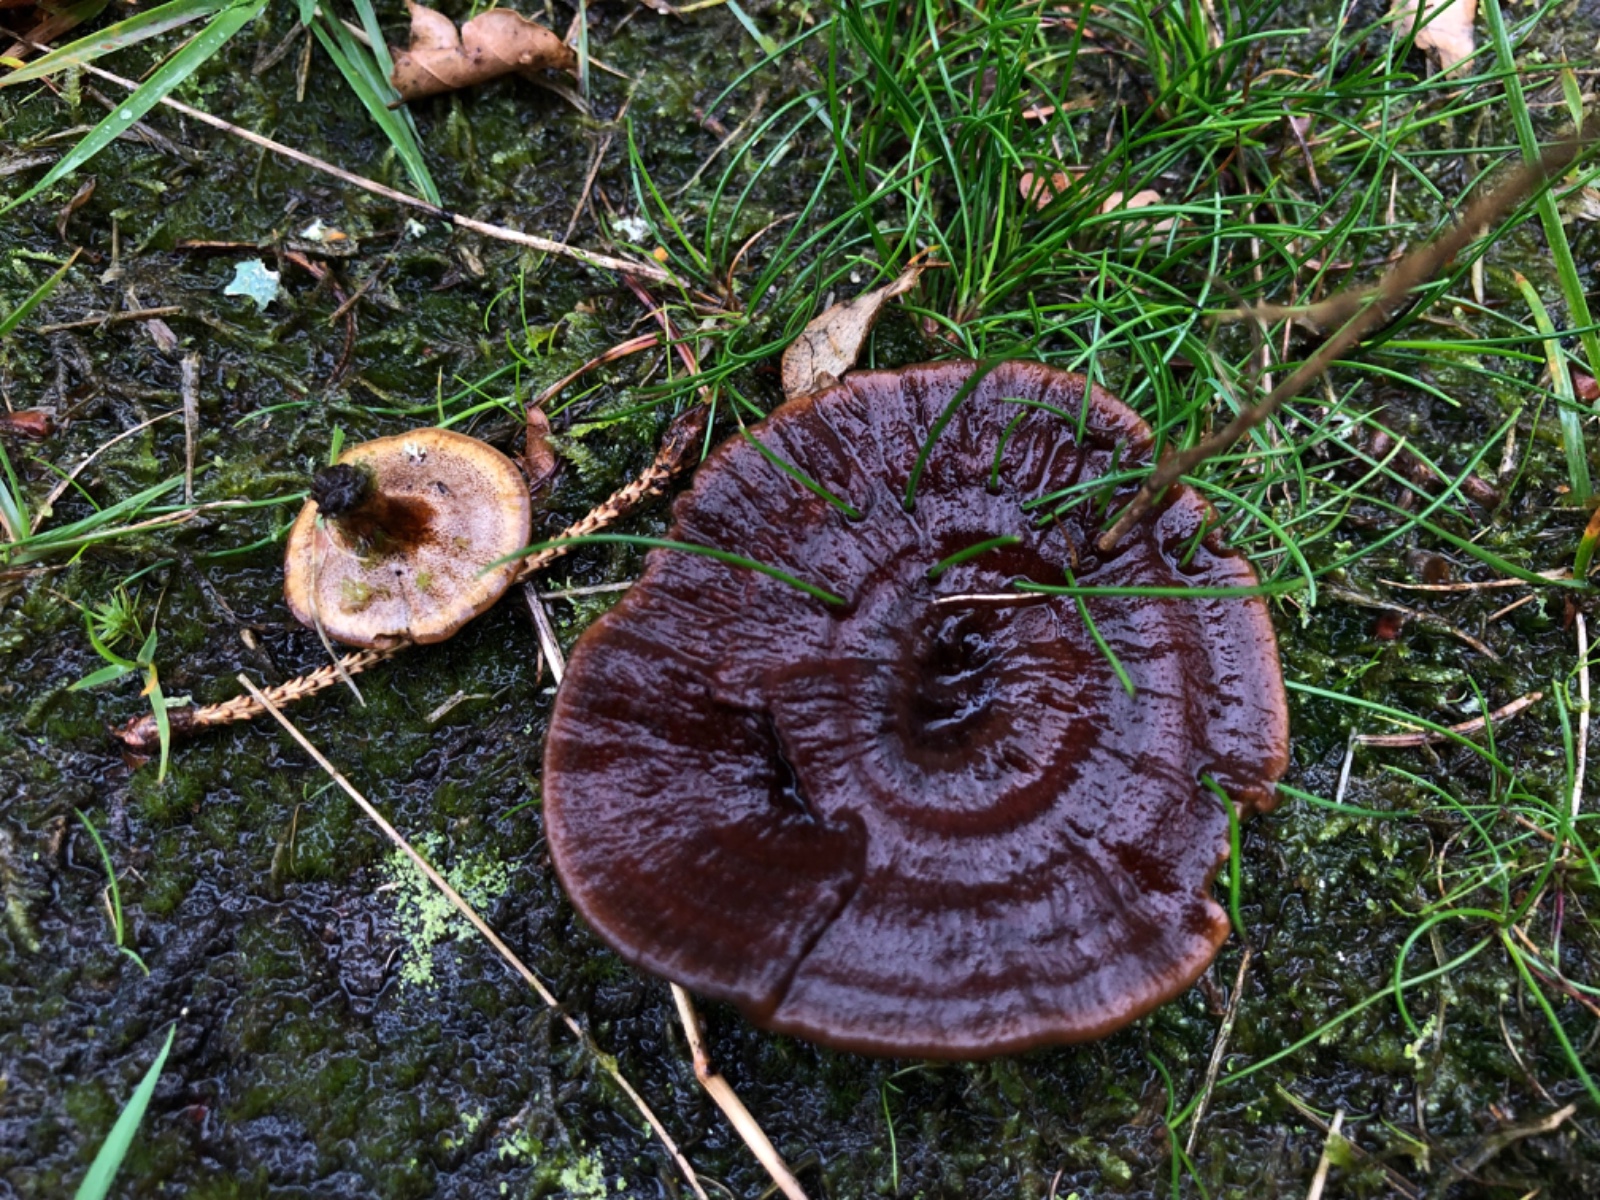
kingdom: Fungi
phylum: Basidiomycota
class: Agaricomycetes
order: Hymenochaetales
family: Hymenochaetaceae
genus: Coltricia
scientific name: Coltricia perennis
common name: almindelig sandporesvamp
